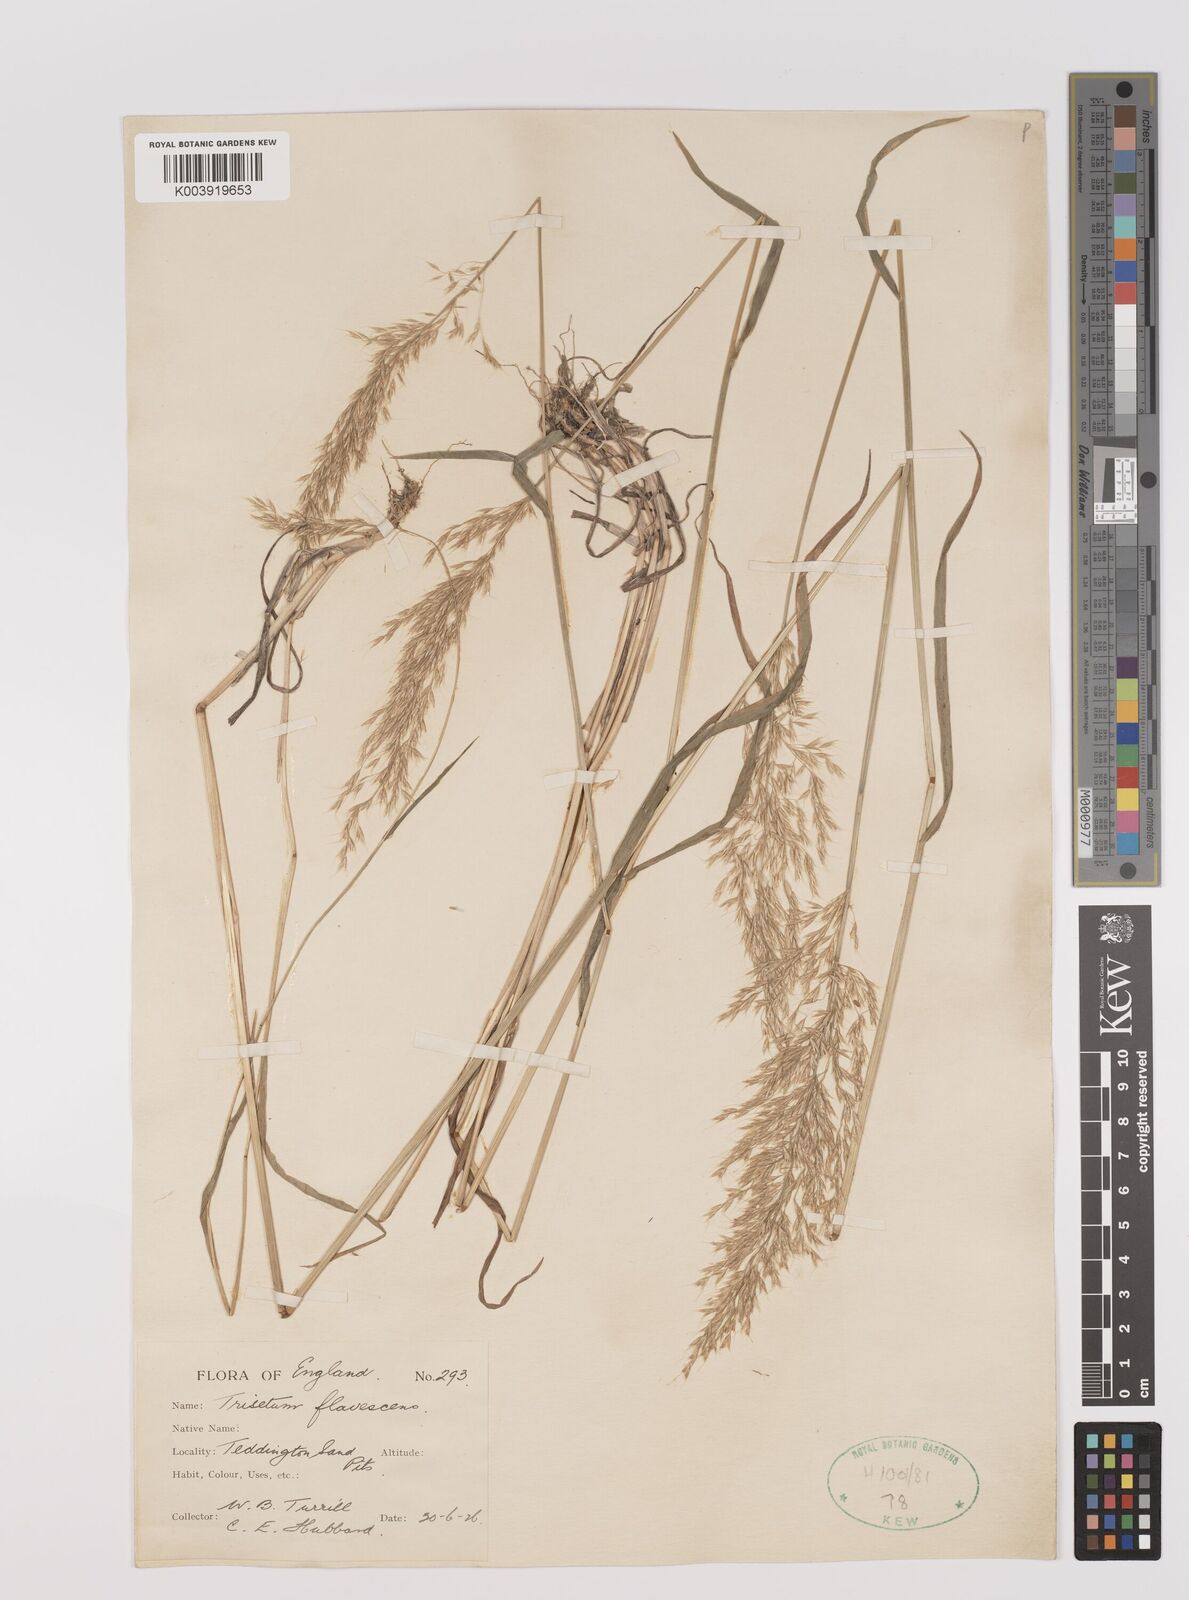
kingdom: Plantae
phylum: Tracheophyta
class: Liliopsida
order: Poales
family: Poaceae
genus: Trisetum
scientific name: Trisetum flavescens
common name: Yellow oat-grass
